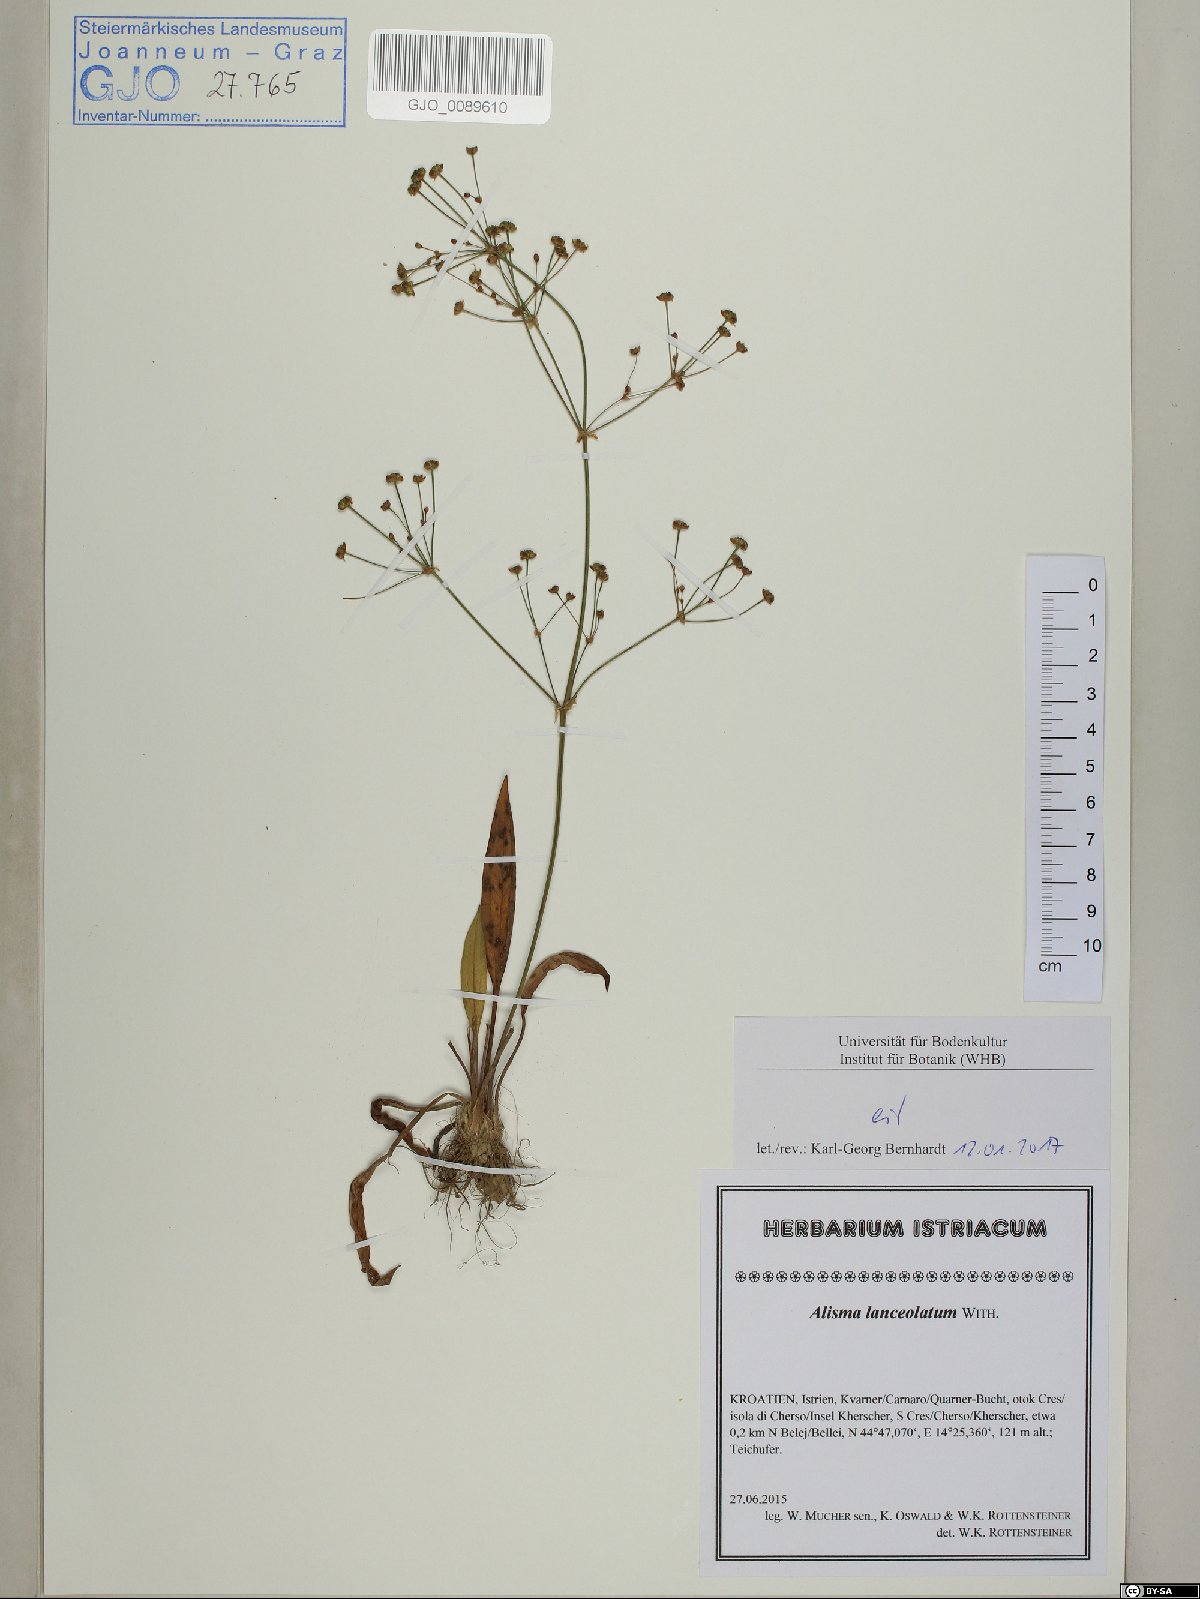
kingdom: Plantae
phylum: Tracheophyta
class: Liliopsida
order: Alismatales
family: Alismataceae
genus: Alisma
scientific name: Alisma lanceolatum
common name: Narrow-leaved water-plantain
